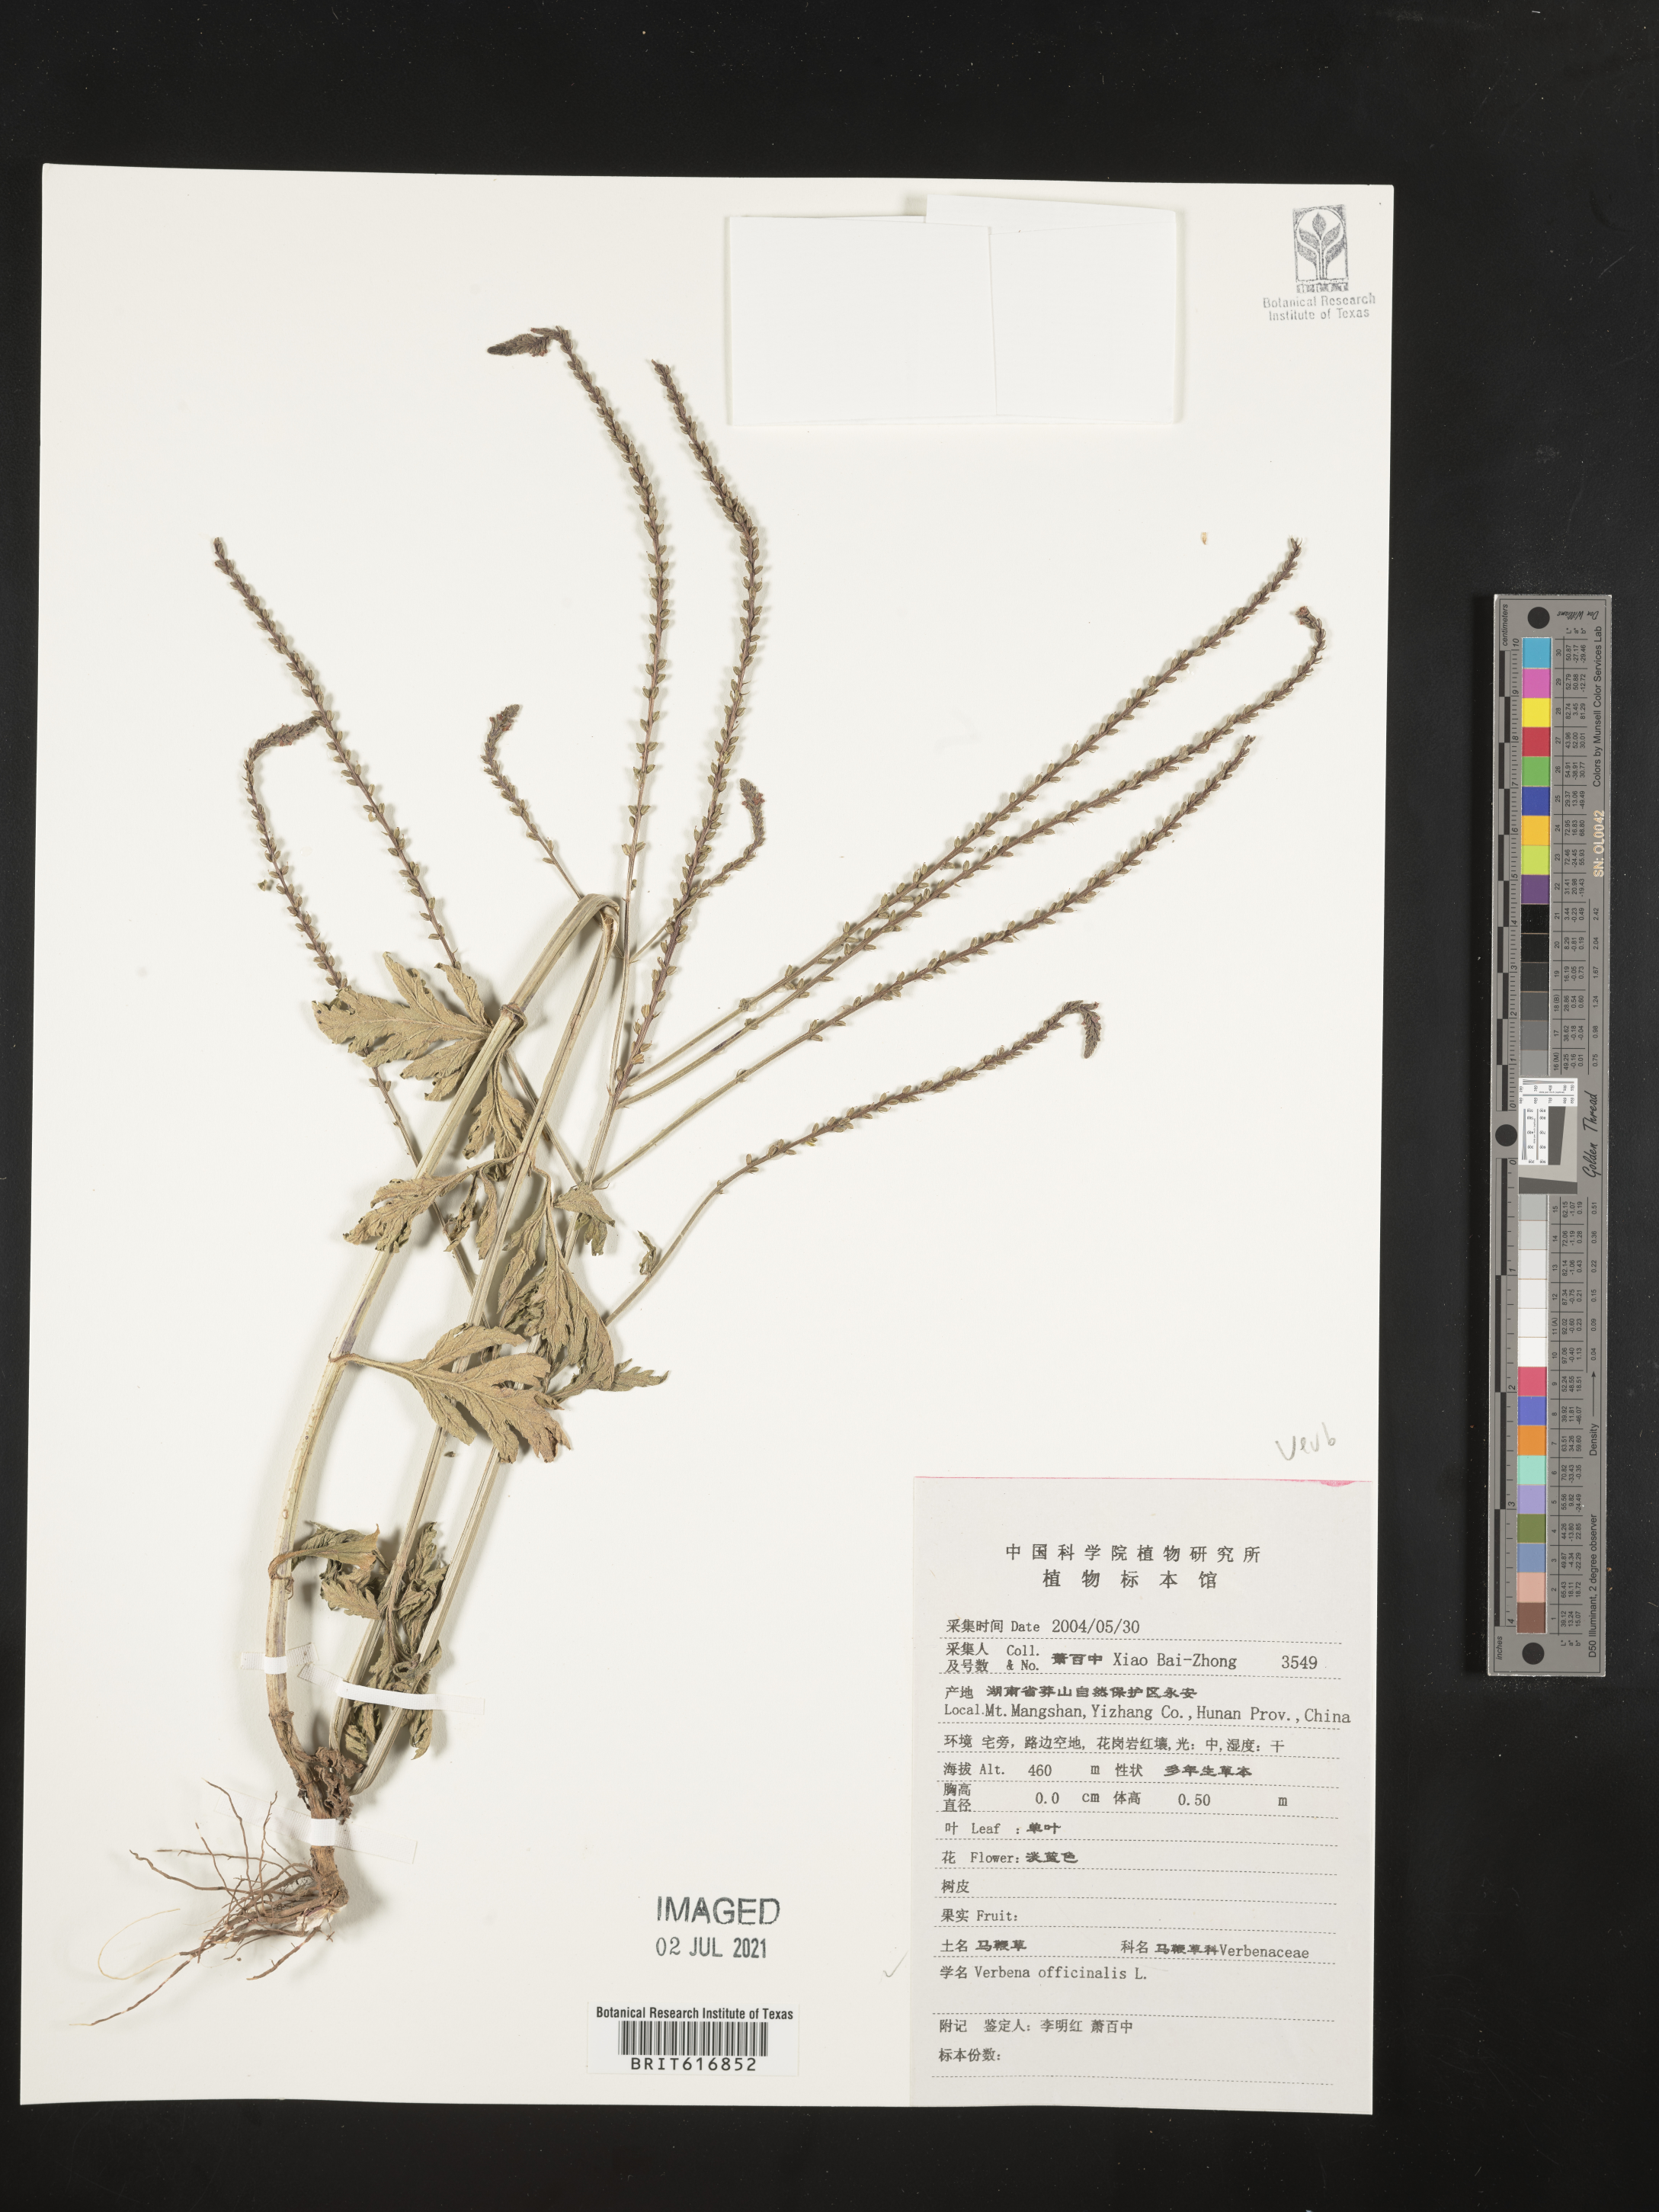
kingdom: Plantae
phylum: Tracheophyta
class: Magnoliopsida
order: Lamiales
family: Verbenaceae
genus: Verbena
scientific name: Verbena officinalis
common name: Vervain
